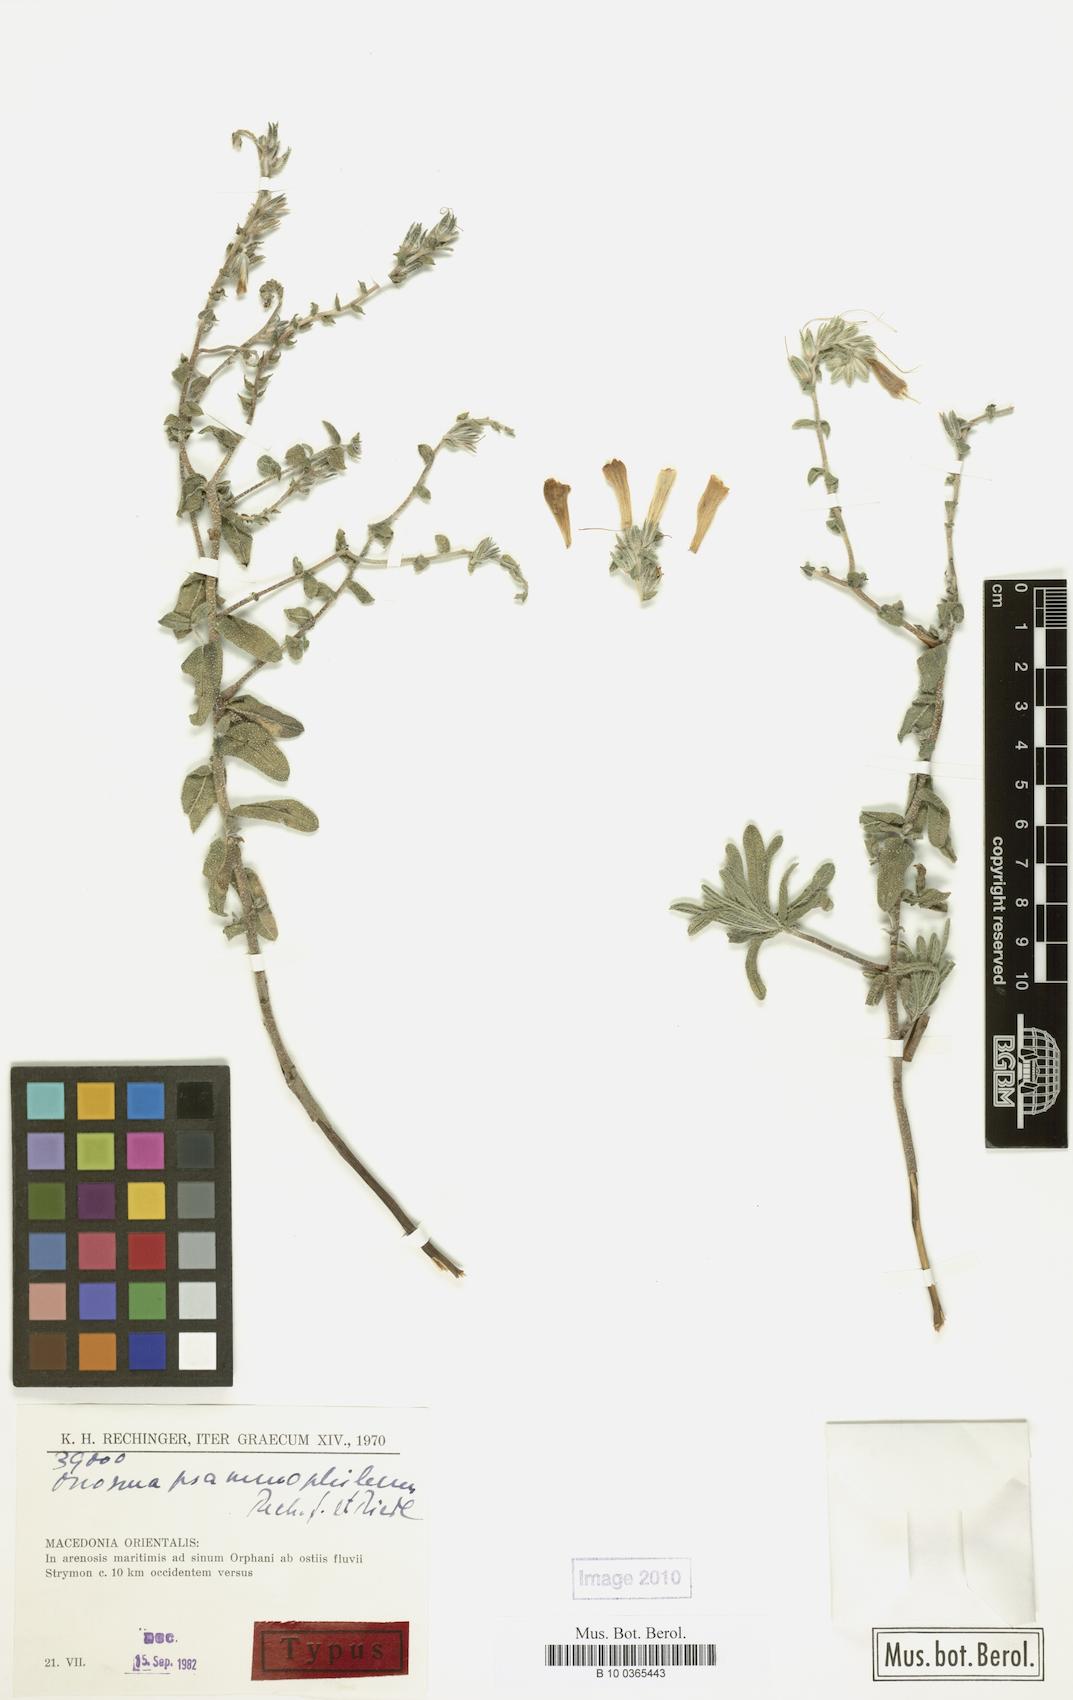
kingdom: Plantae
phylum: Tracheophyta
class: Magnoliopsida
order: Boraginales
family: Boraginaceae
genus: Onosma
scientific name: Onosma heterophylla
